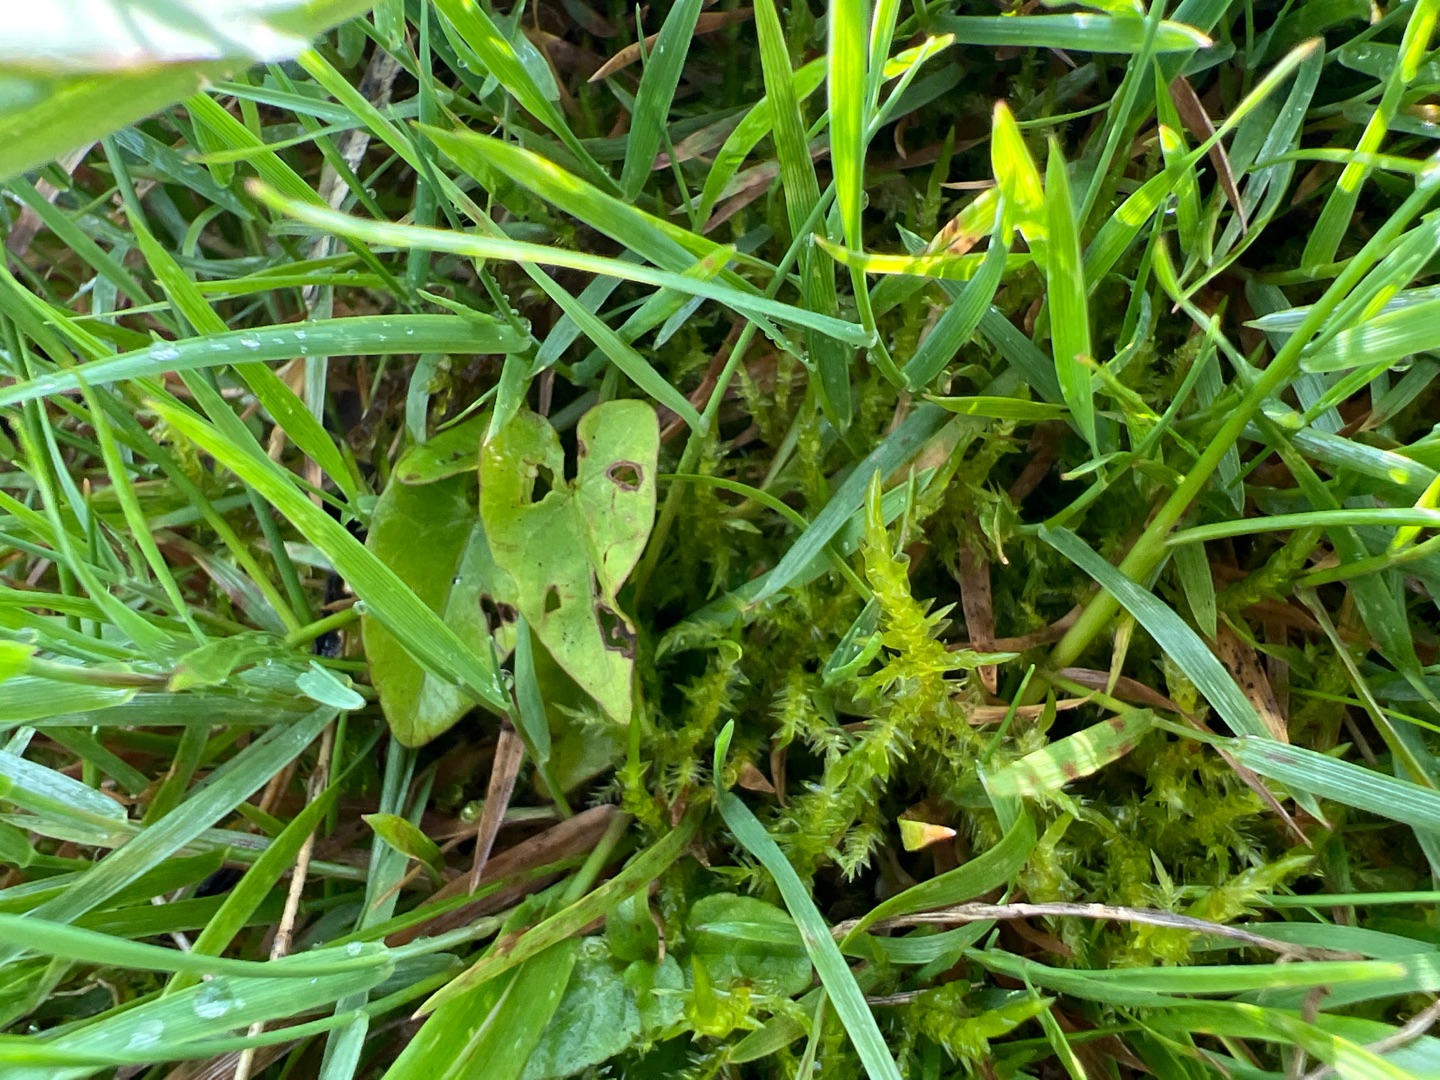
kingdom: Plantae
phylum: Bryophyta
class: Bryopsida
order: Hypnales
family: Pylaisiaceae
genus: Calliergonella
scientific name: Calliergonella cuspidata
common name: Spids spydmos
